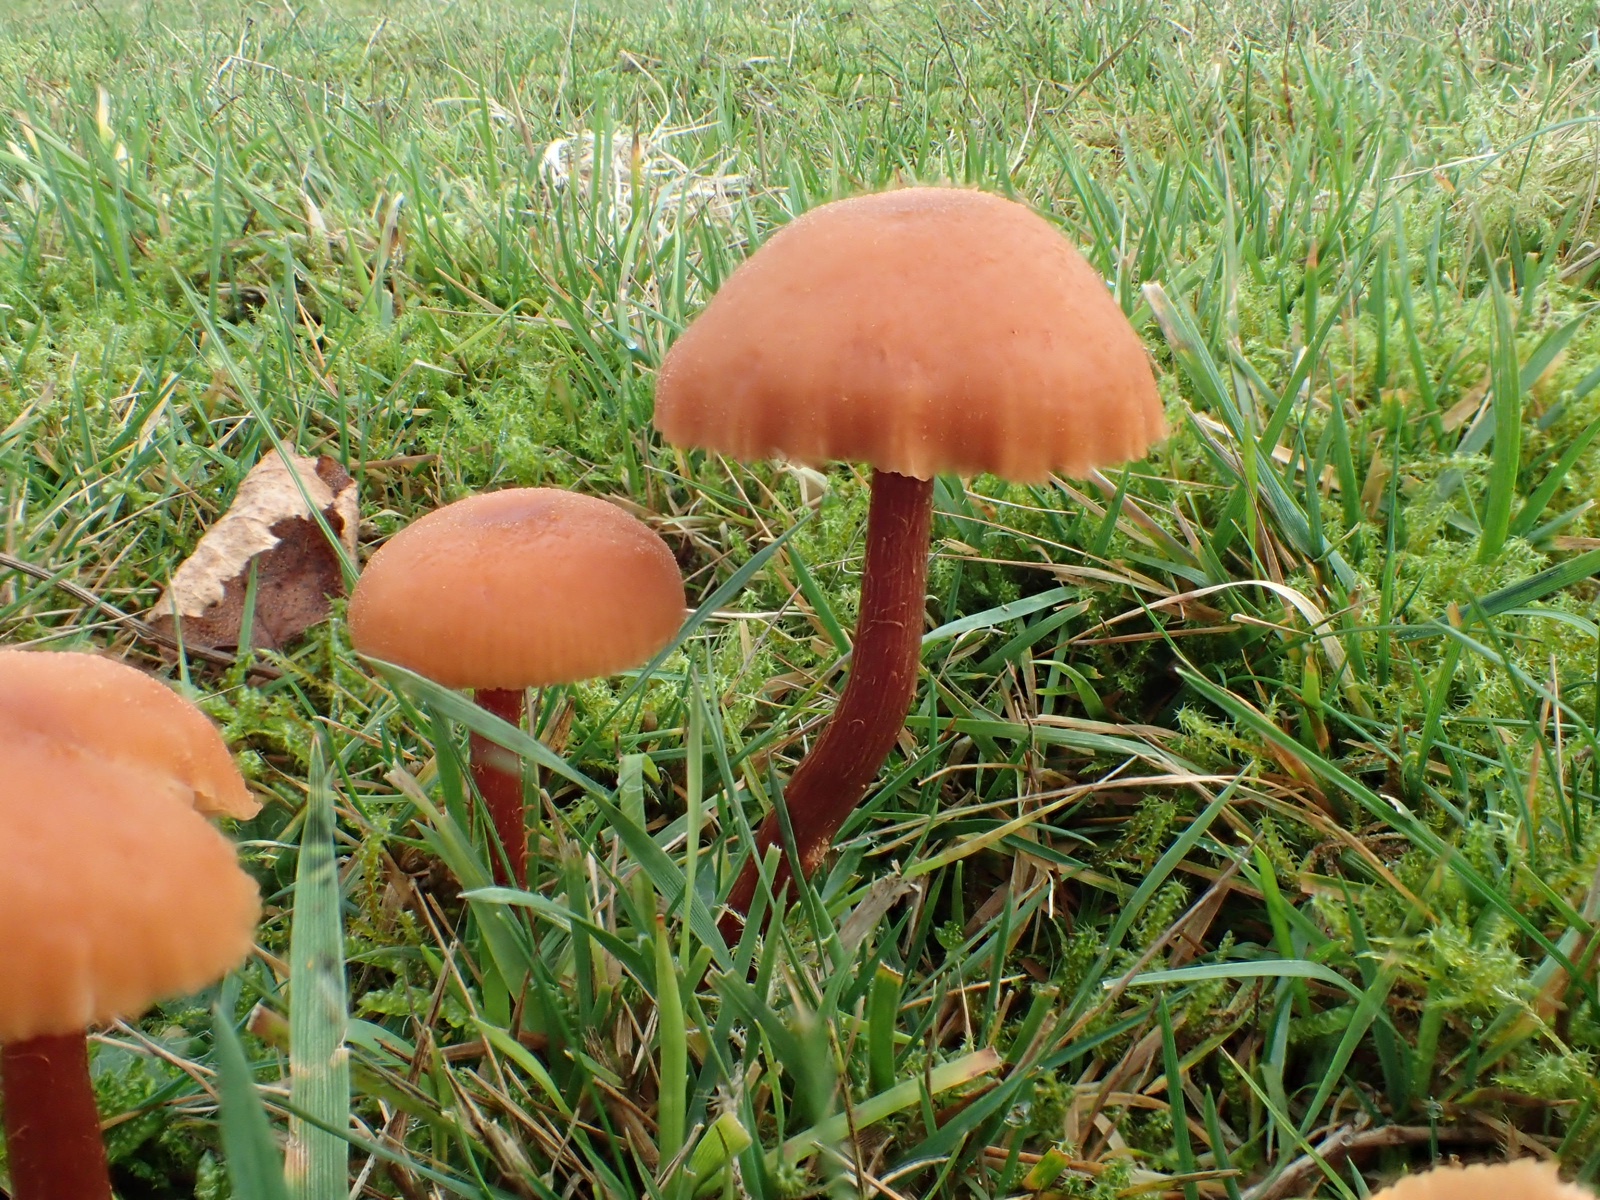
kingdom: Fungi
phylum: Basidiomycota
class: Agaricomycetes
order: Agaricales
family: Hydnangiaceae
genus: Laccaria
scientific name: Laccaria proxima
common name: stor ametysthat
